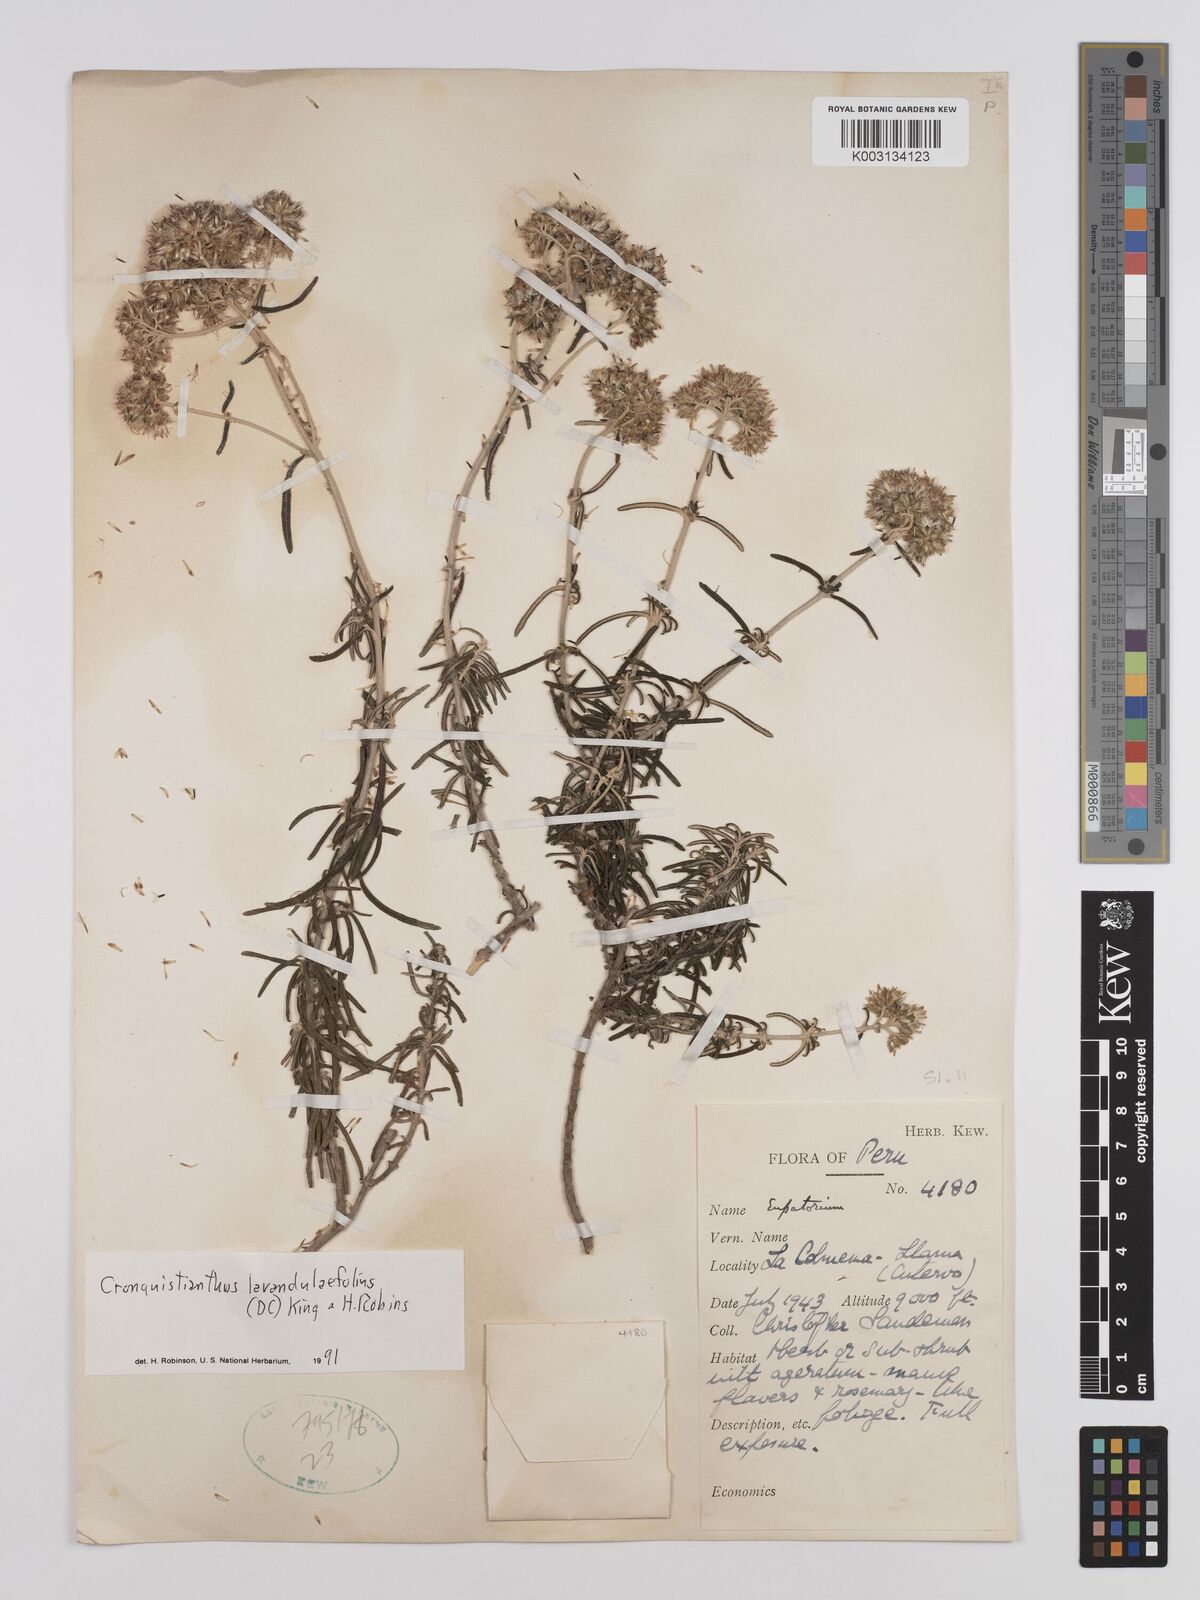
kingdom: Plantae
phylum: Tracheophyta
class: Magnoliopsida
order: Asterales
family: Asteraceae
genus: Cronquistianthus
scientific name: Cronquistianthus lavandulifolius
